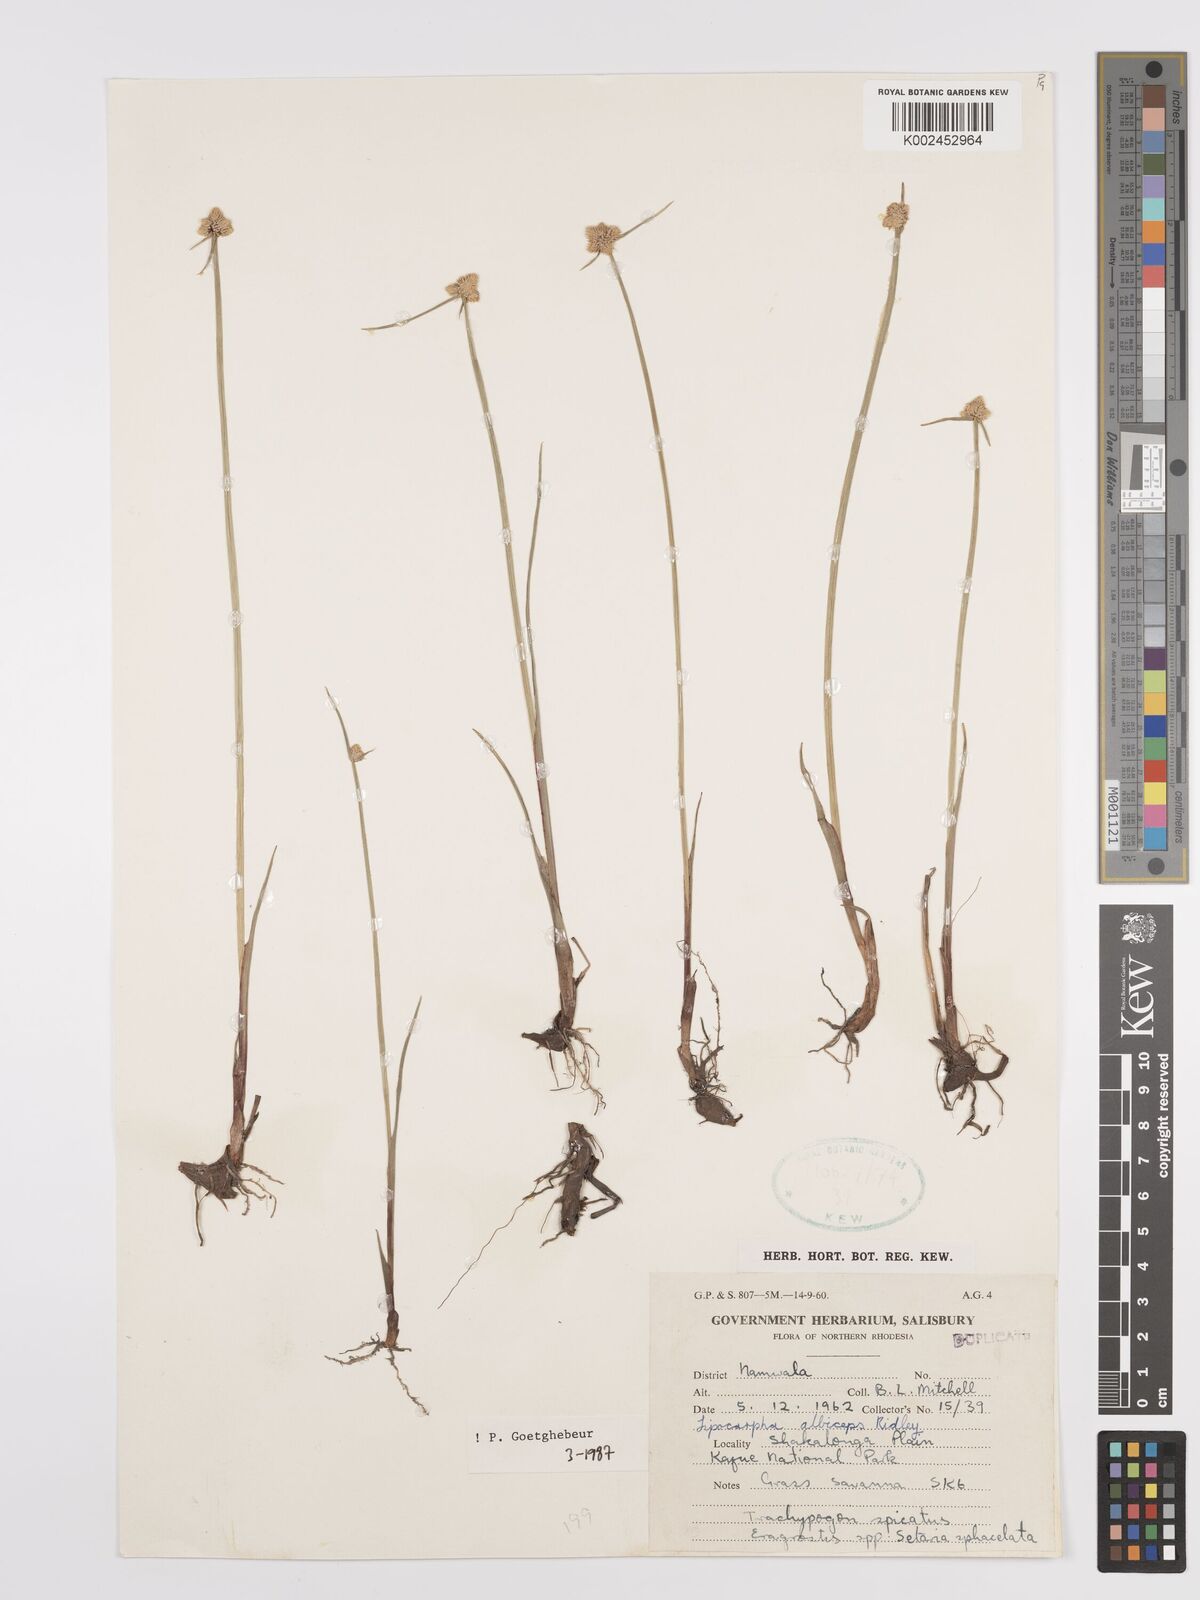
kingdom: Plantae
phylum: Tracheophyta
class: Liliopsida
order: Poales
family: Cyperaceae
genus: Cyperus
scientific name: Cyperus albiceps
